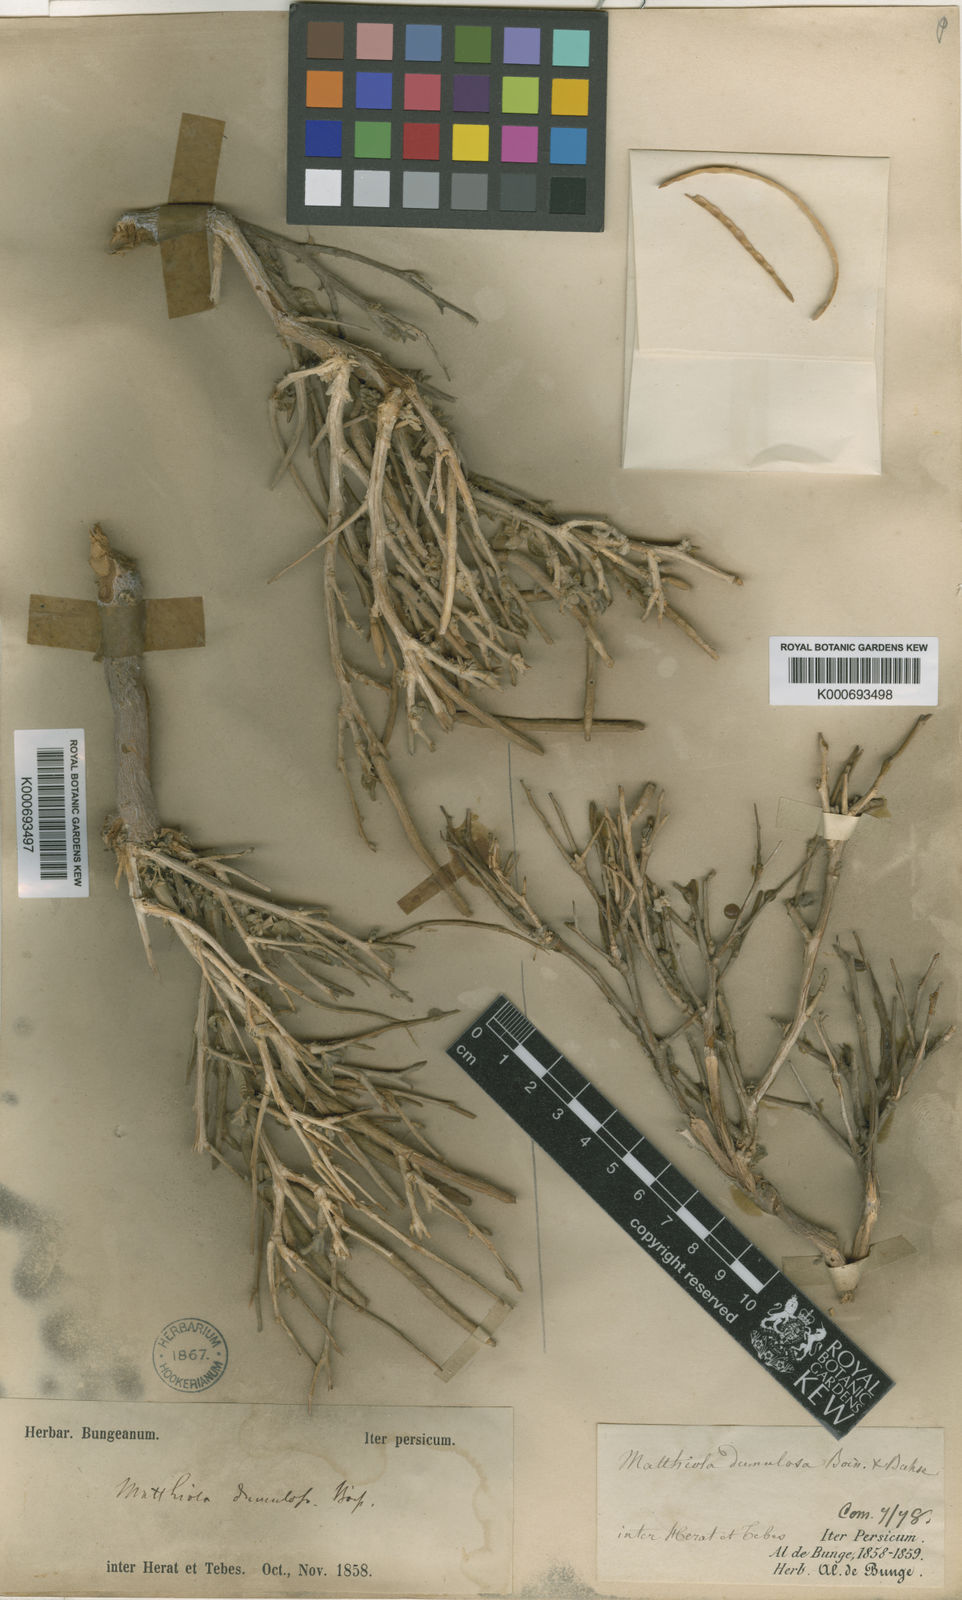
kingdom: Plantae
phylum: Tracheophyta
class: Magnoliopsida
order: Brassicales
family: Brassicaceae
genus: Matthiola
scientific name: Matthiola dumulosa
